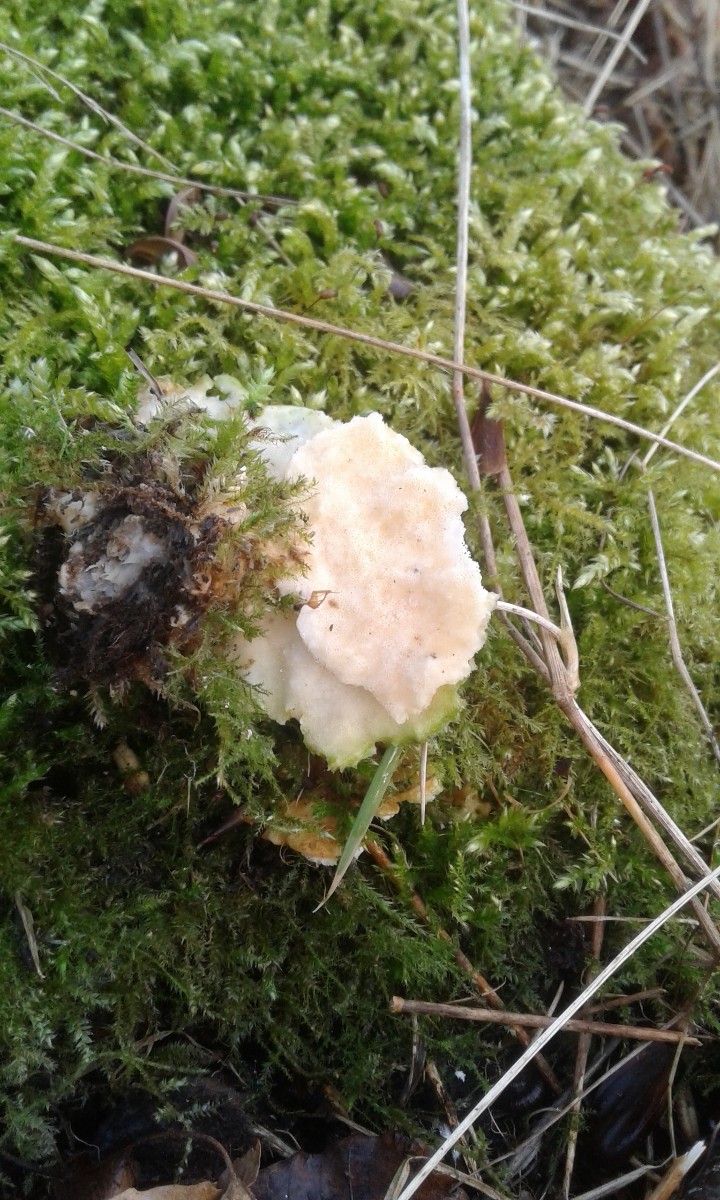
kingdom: Fungi
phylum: Basidiomycota
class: Agaricomycetes
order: Polyporales
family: Polyporaceae
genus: Trametes
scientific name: Trametes hirsuta
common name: håret læderporesvamp
